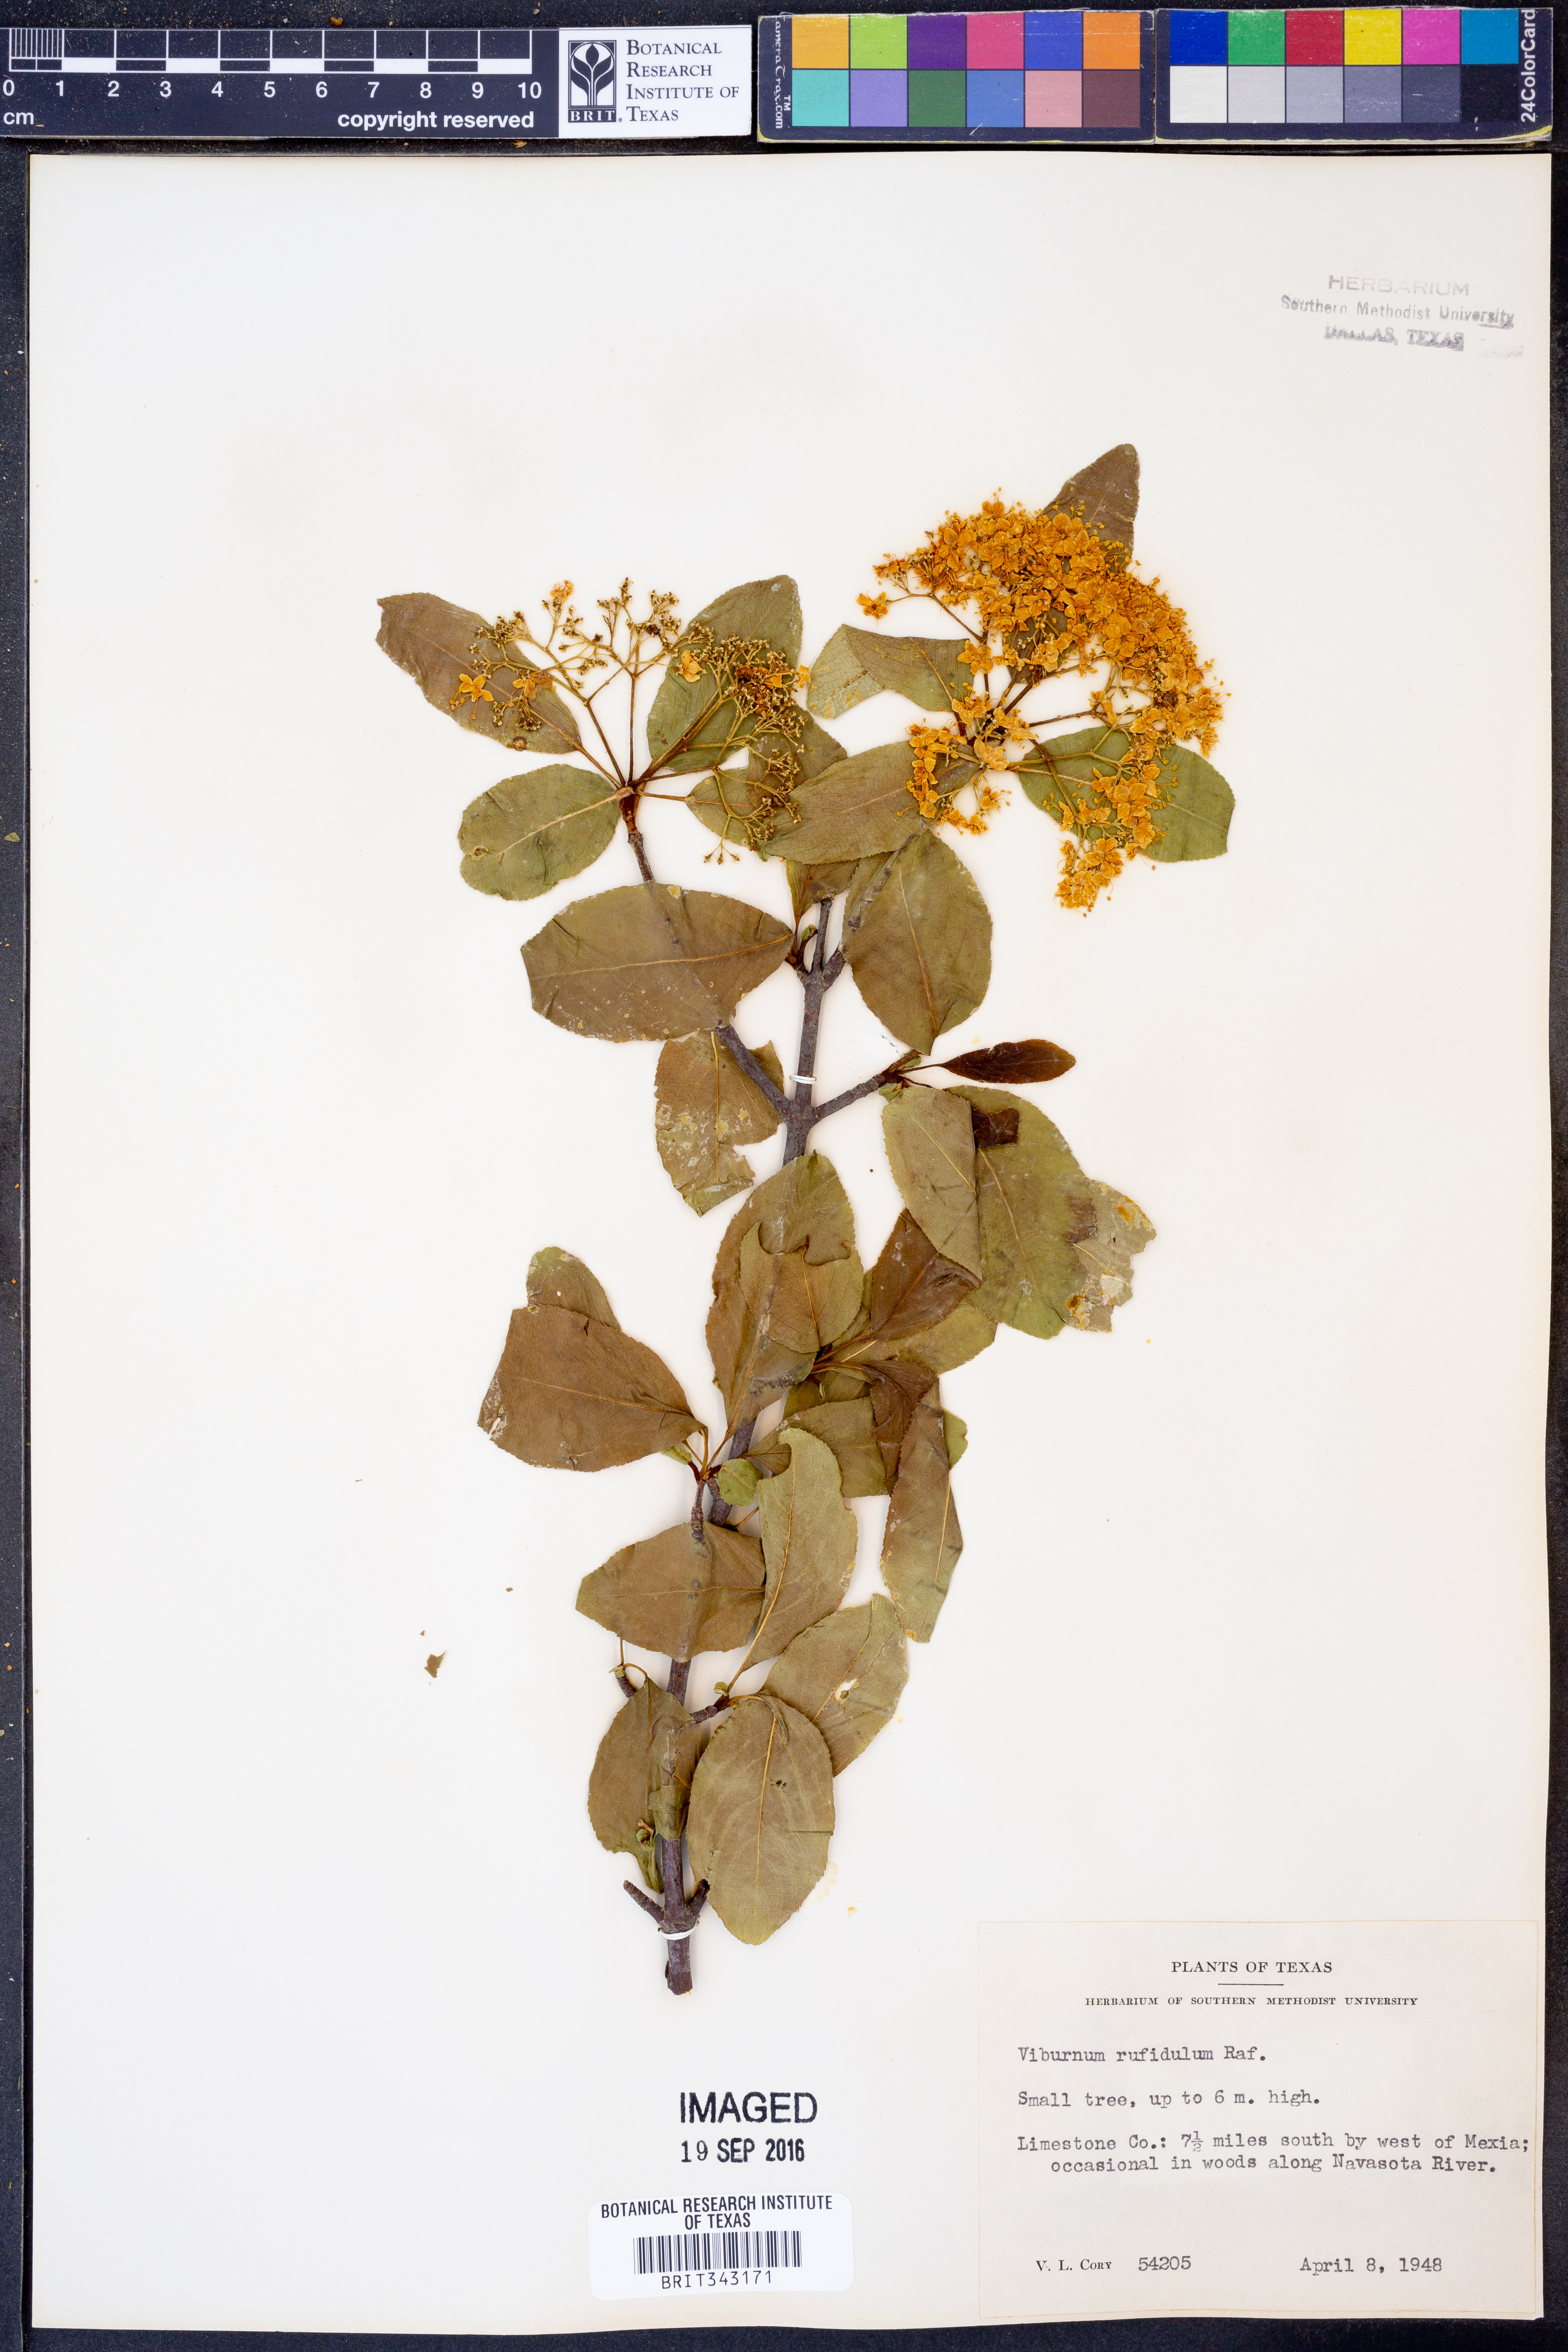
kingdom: Plantae
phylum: Tracheophyta
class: Magnoliopsida
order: Dipsacales
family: Viburnaceae
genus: Viburnum
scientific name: Viburnum rufidulum
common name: Blue haw
